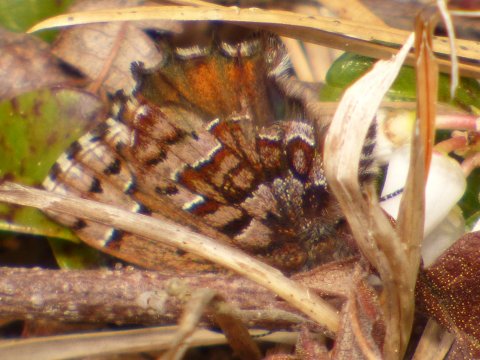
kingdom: Animalia
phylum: Arthropoda
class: Insecta
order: Lepidoptera
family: Lycaenidae
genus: Incisalia
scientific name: Incisalia niphon
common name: Eastern Pine Elfin
